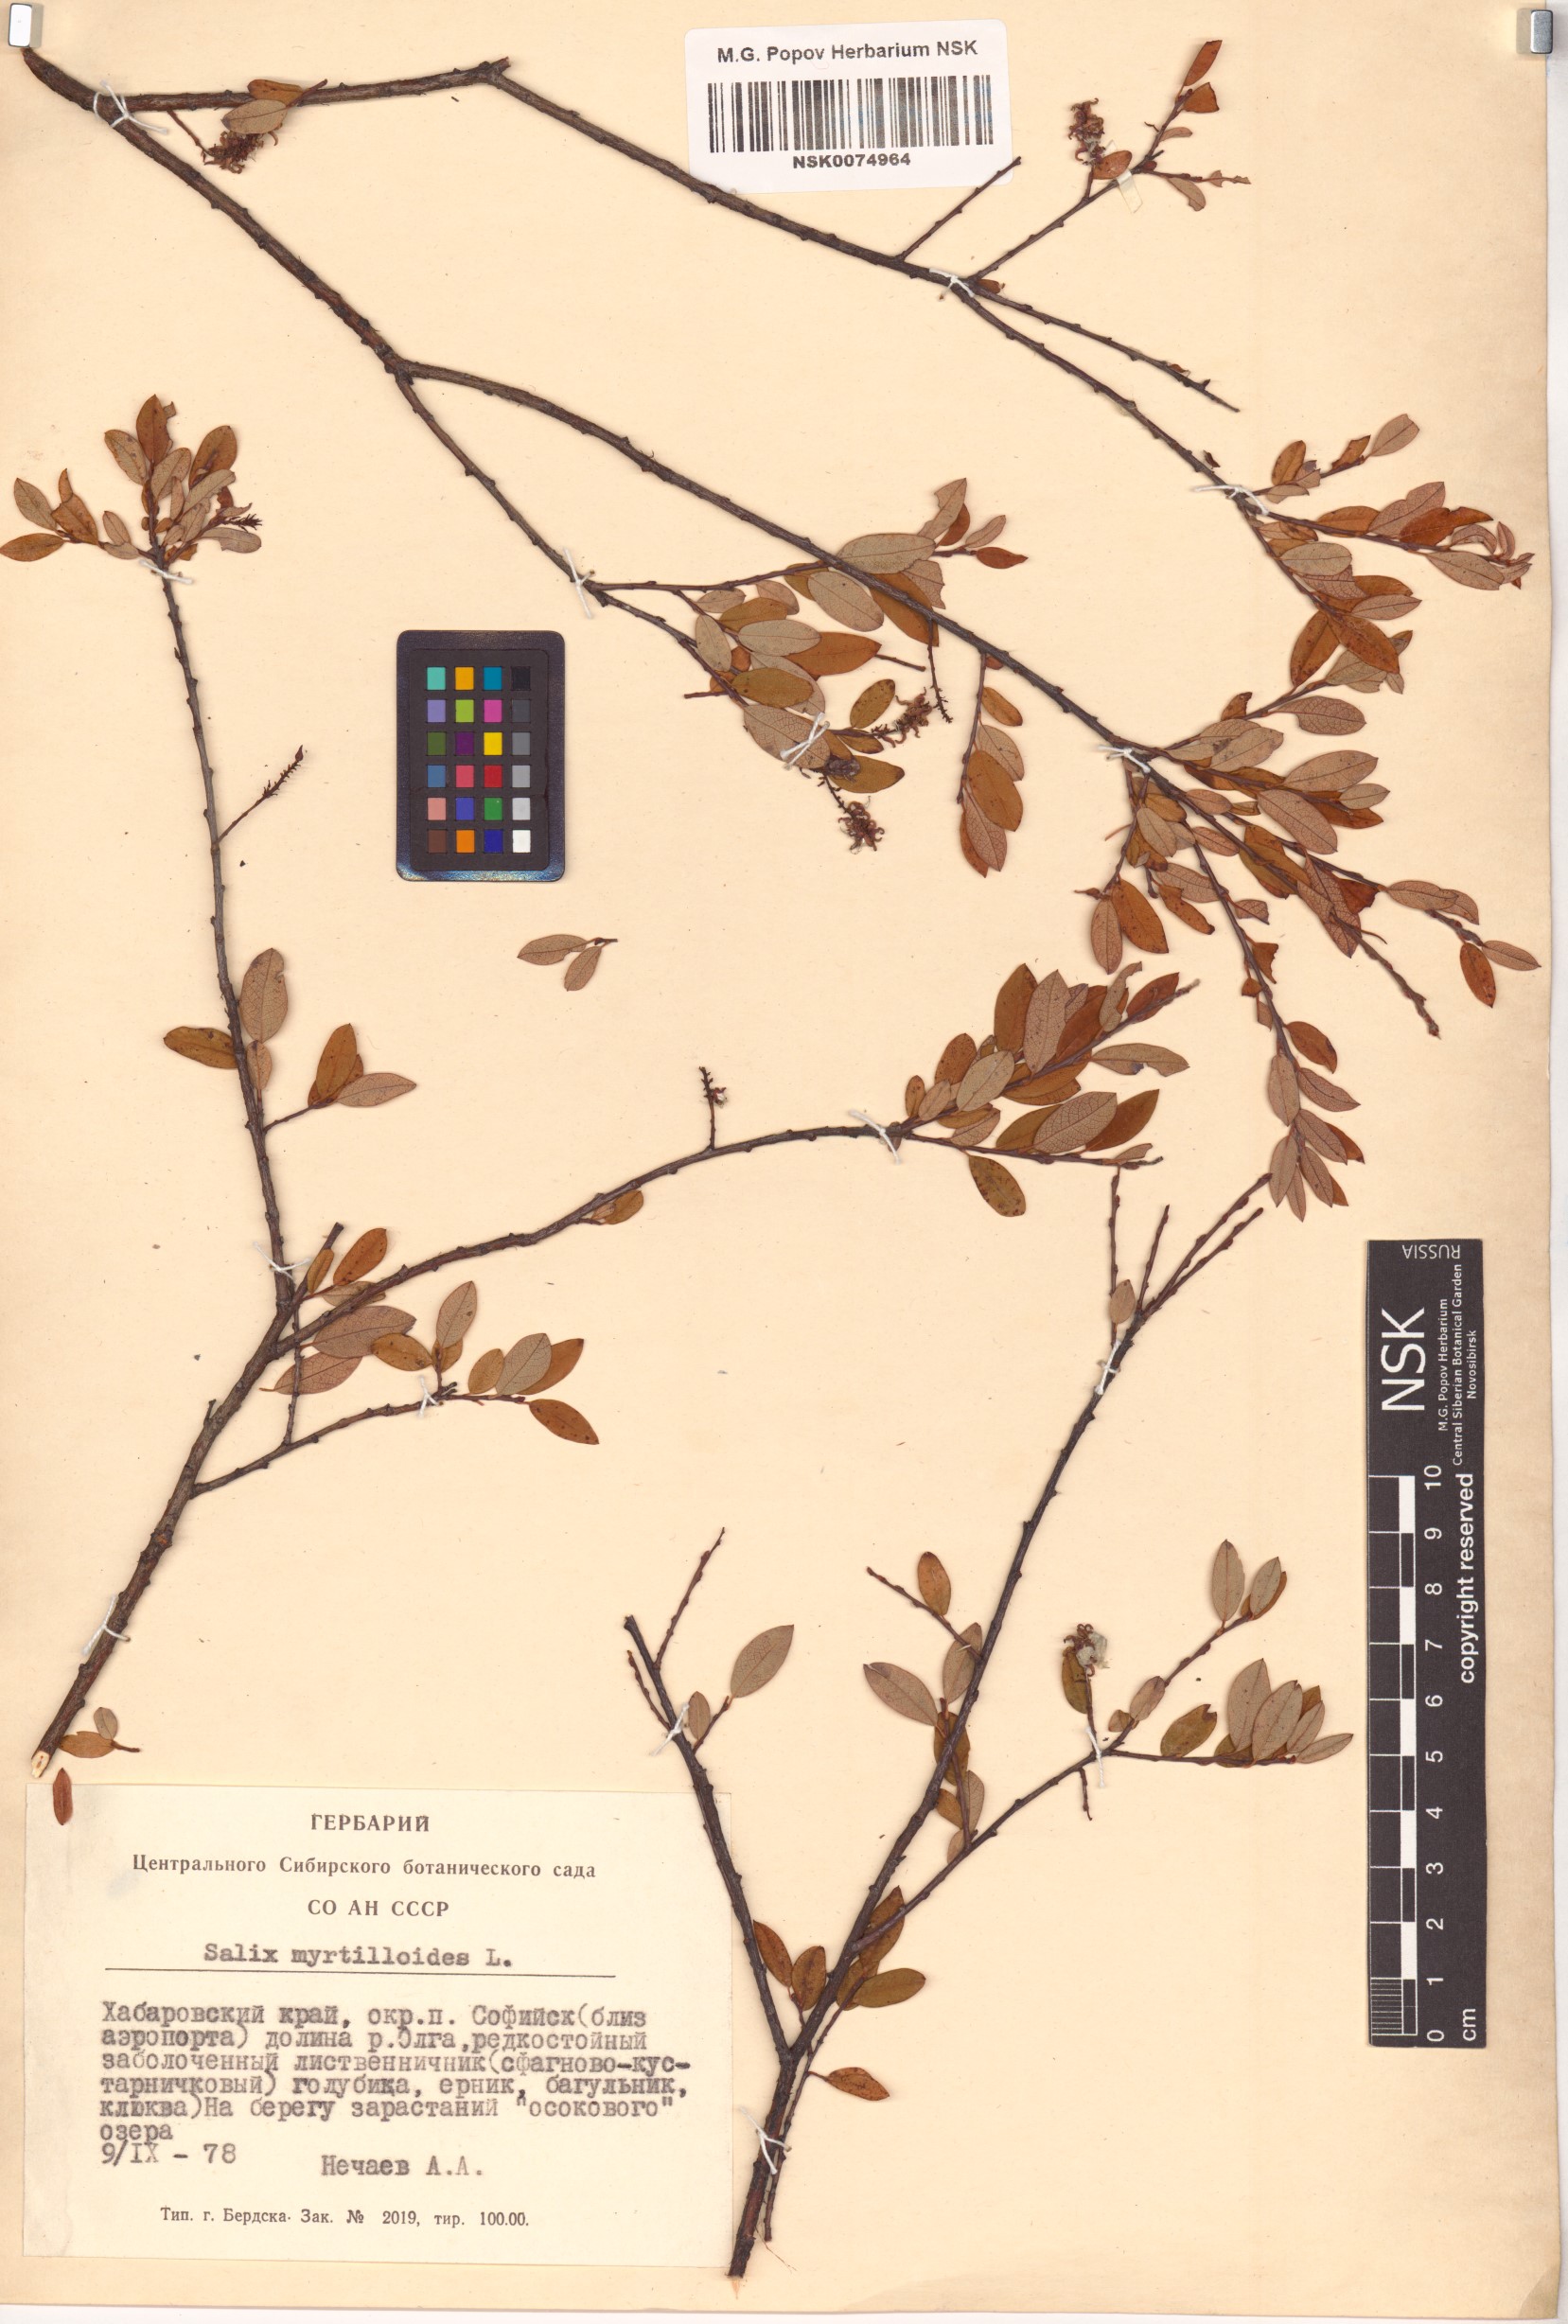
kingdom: Plantae
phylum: Tracheophyta
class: Magnoliopsida
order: Malpighiales
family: Salicaceae
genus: Salix
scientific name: Salix myrtilloides
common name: Myrtle-leaved willow
